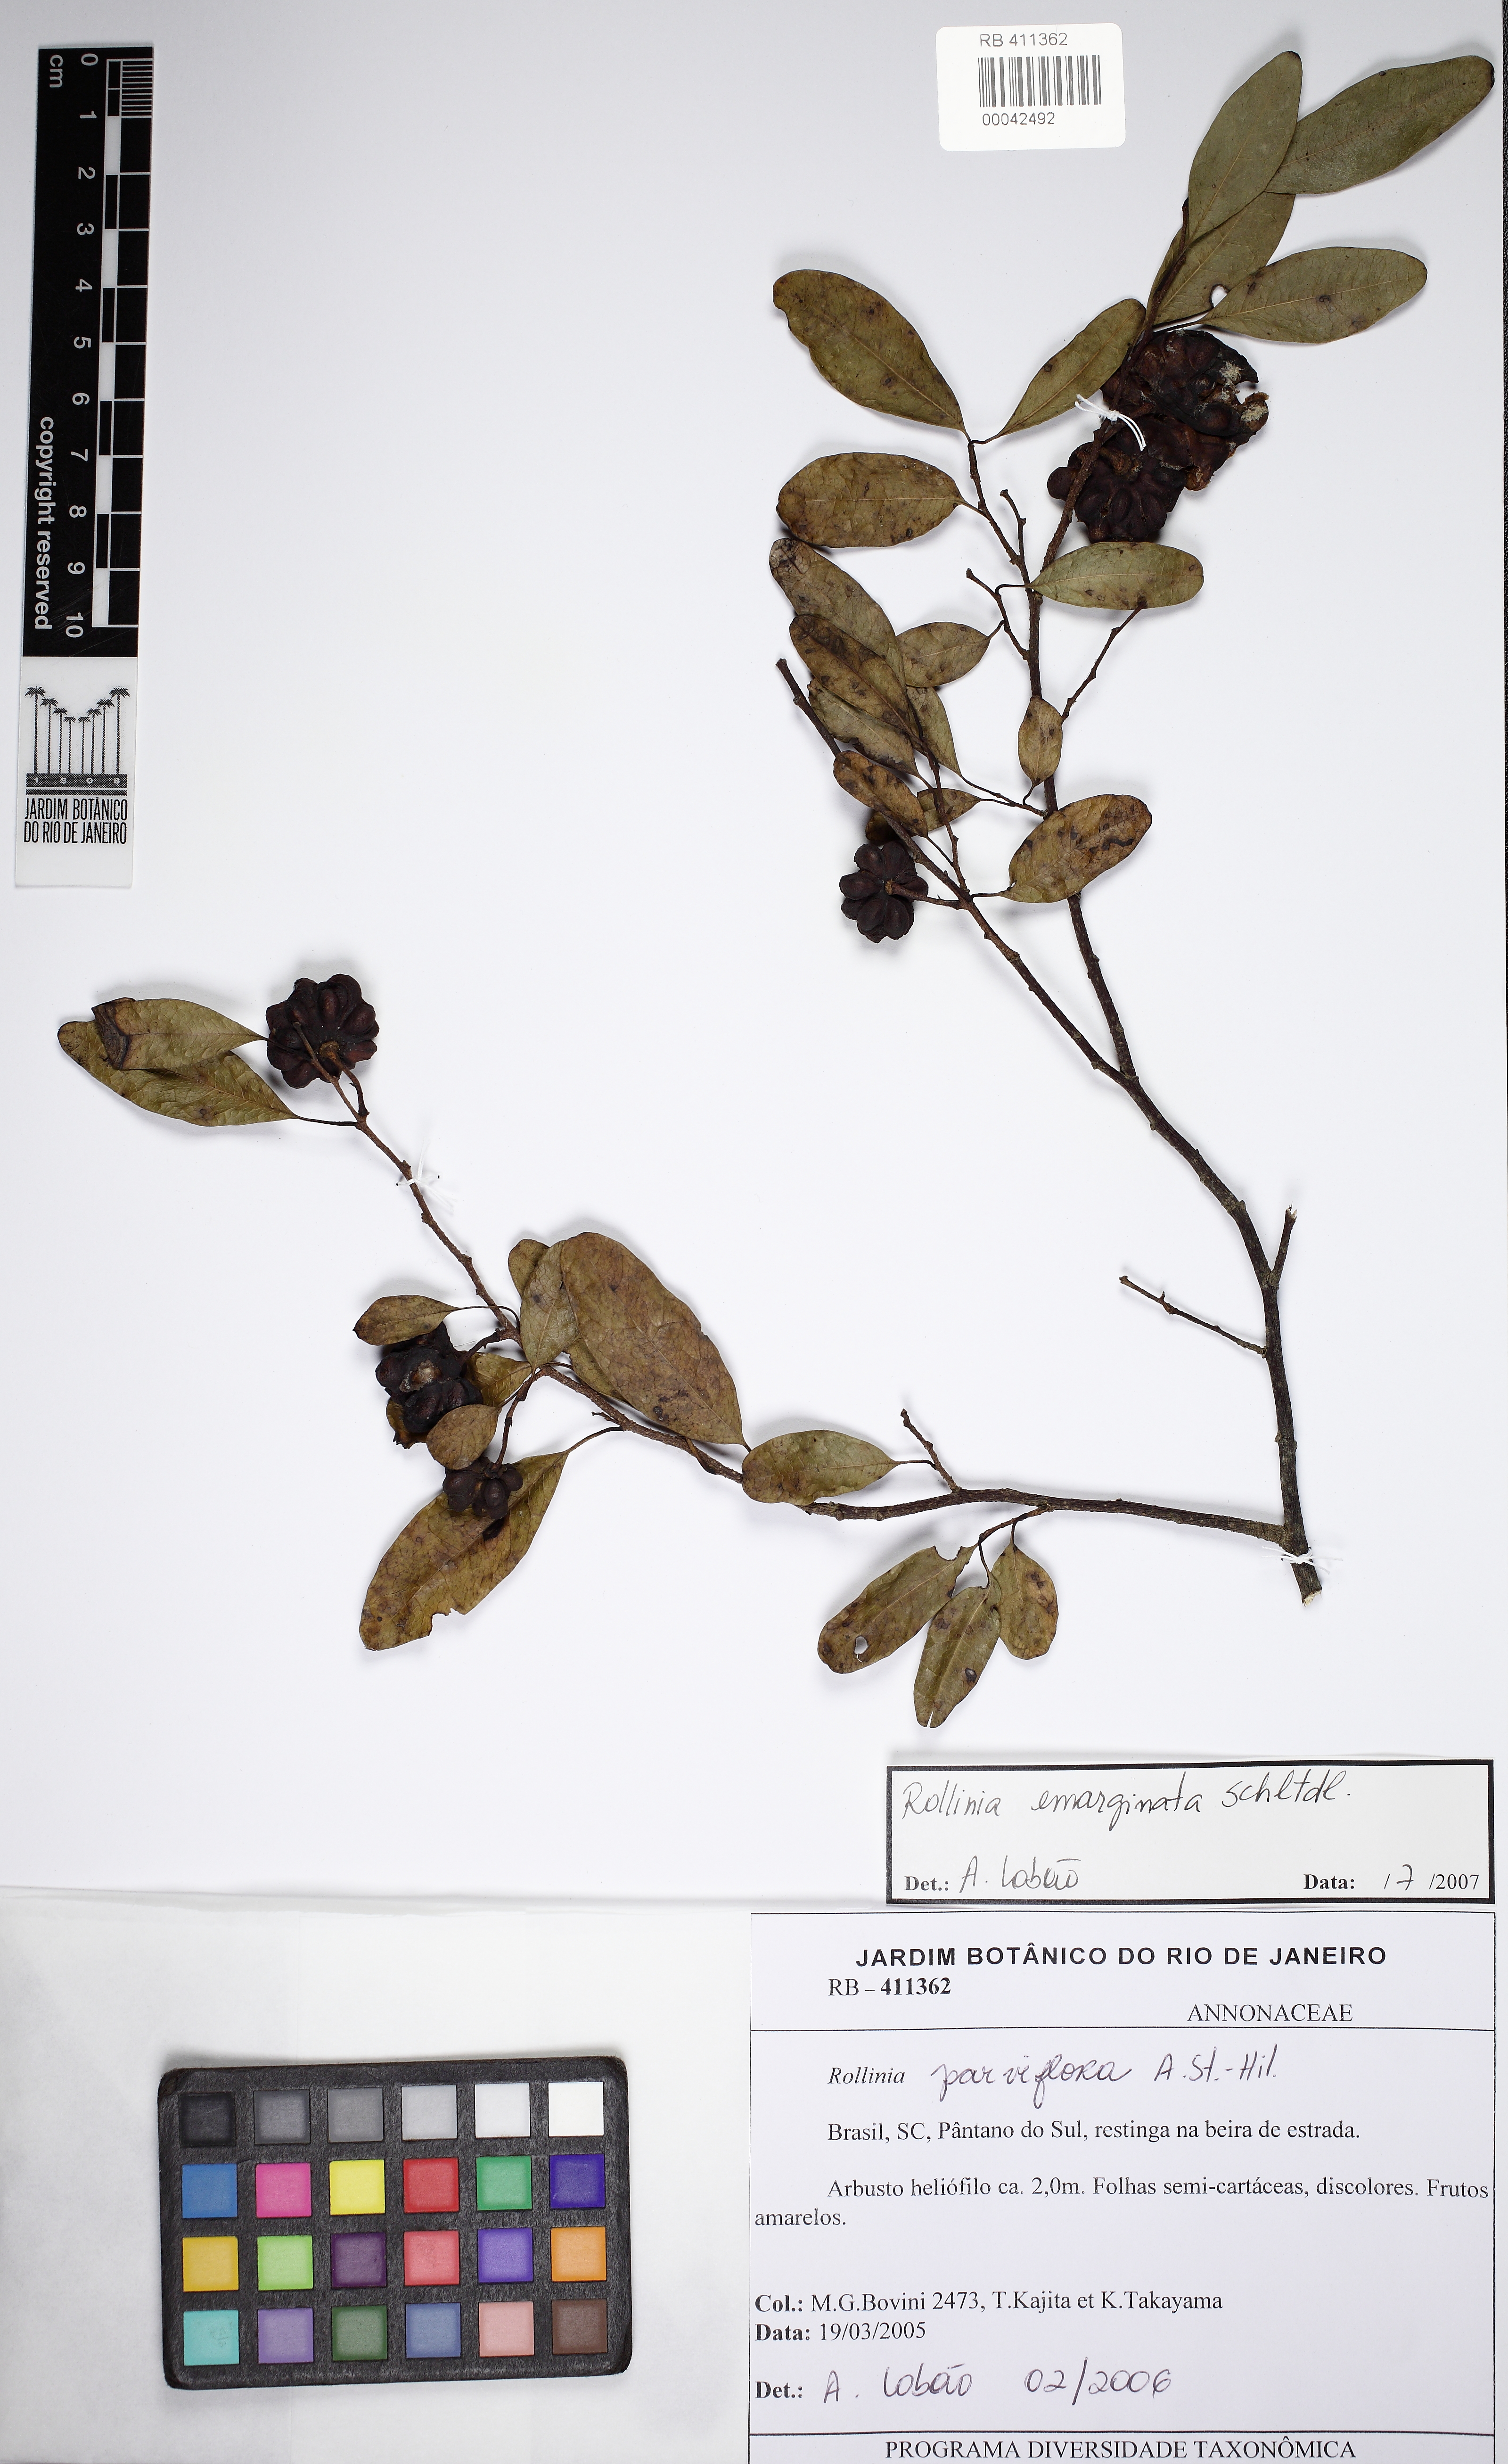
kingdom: Plantae
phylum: Tracheophyta
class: Magnoliopsida
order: Magnoliales
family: Annonaceae
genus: Annona
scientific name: Annona emarginata
